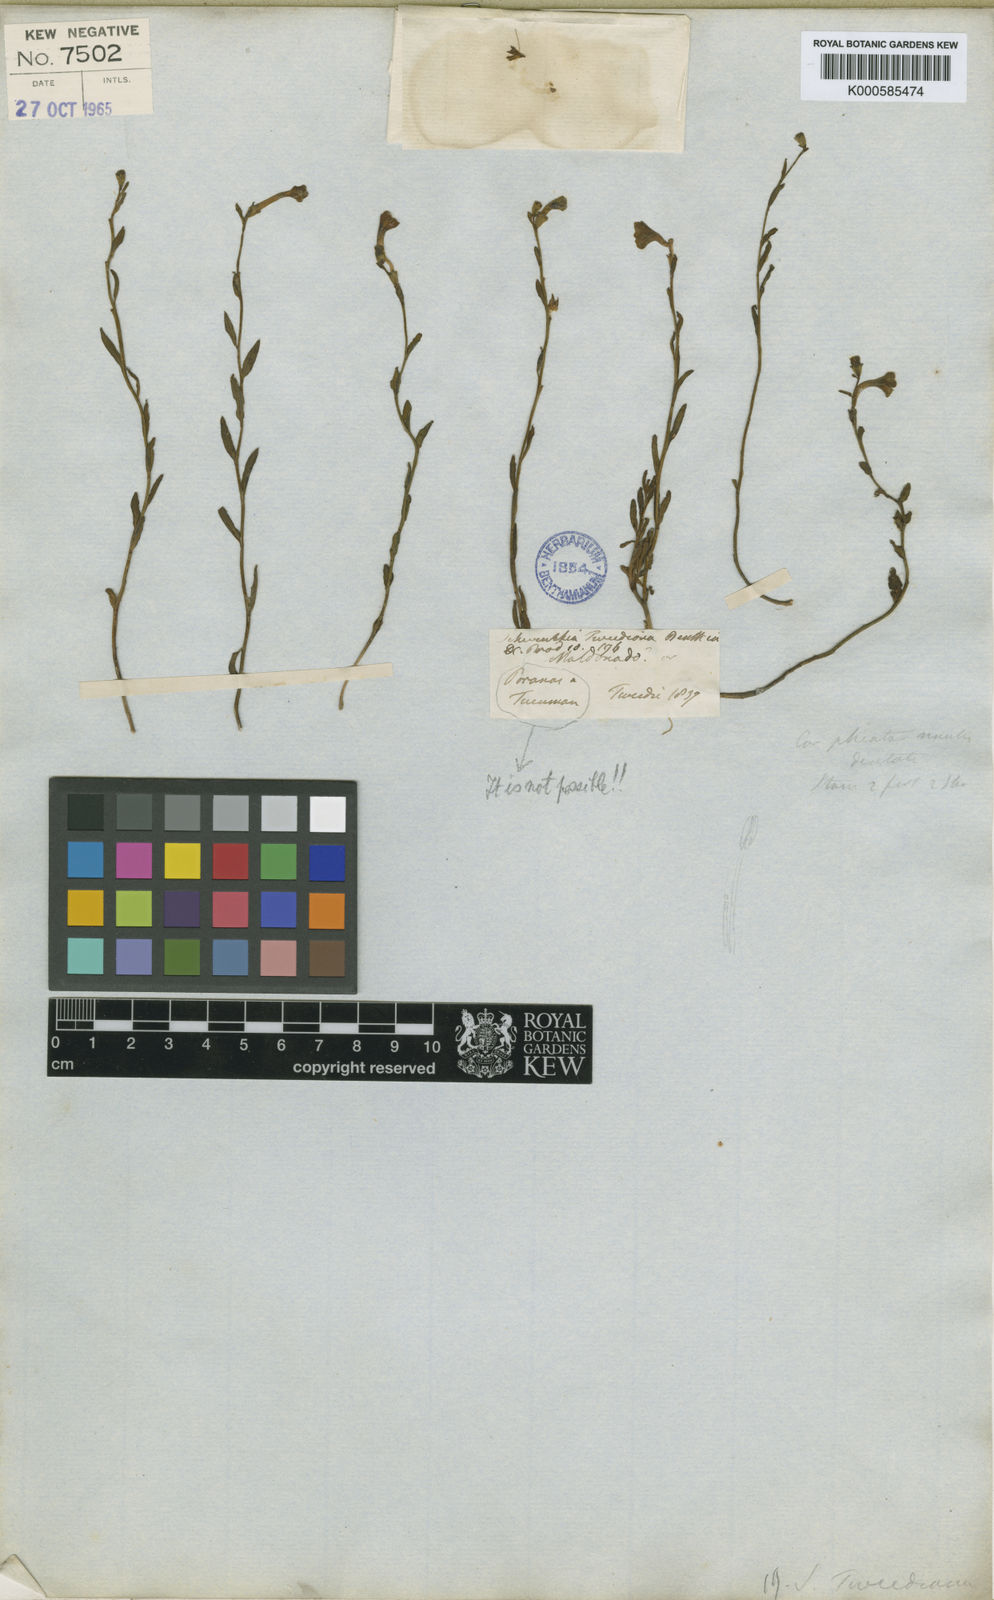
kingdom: Plantae
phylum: Tracheophyta
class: Magnoliopsida
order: Solanales
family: Solanaceae
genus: Schwenckia
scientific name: Schwenckia curviflora
